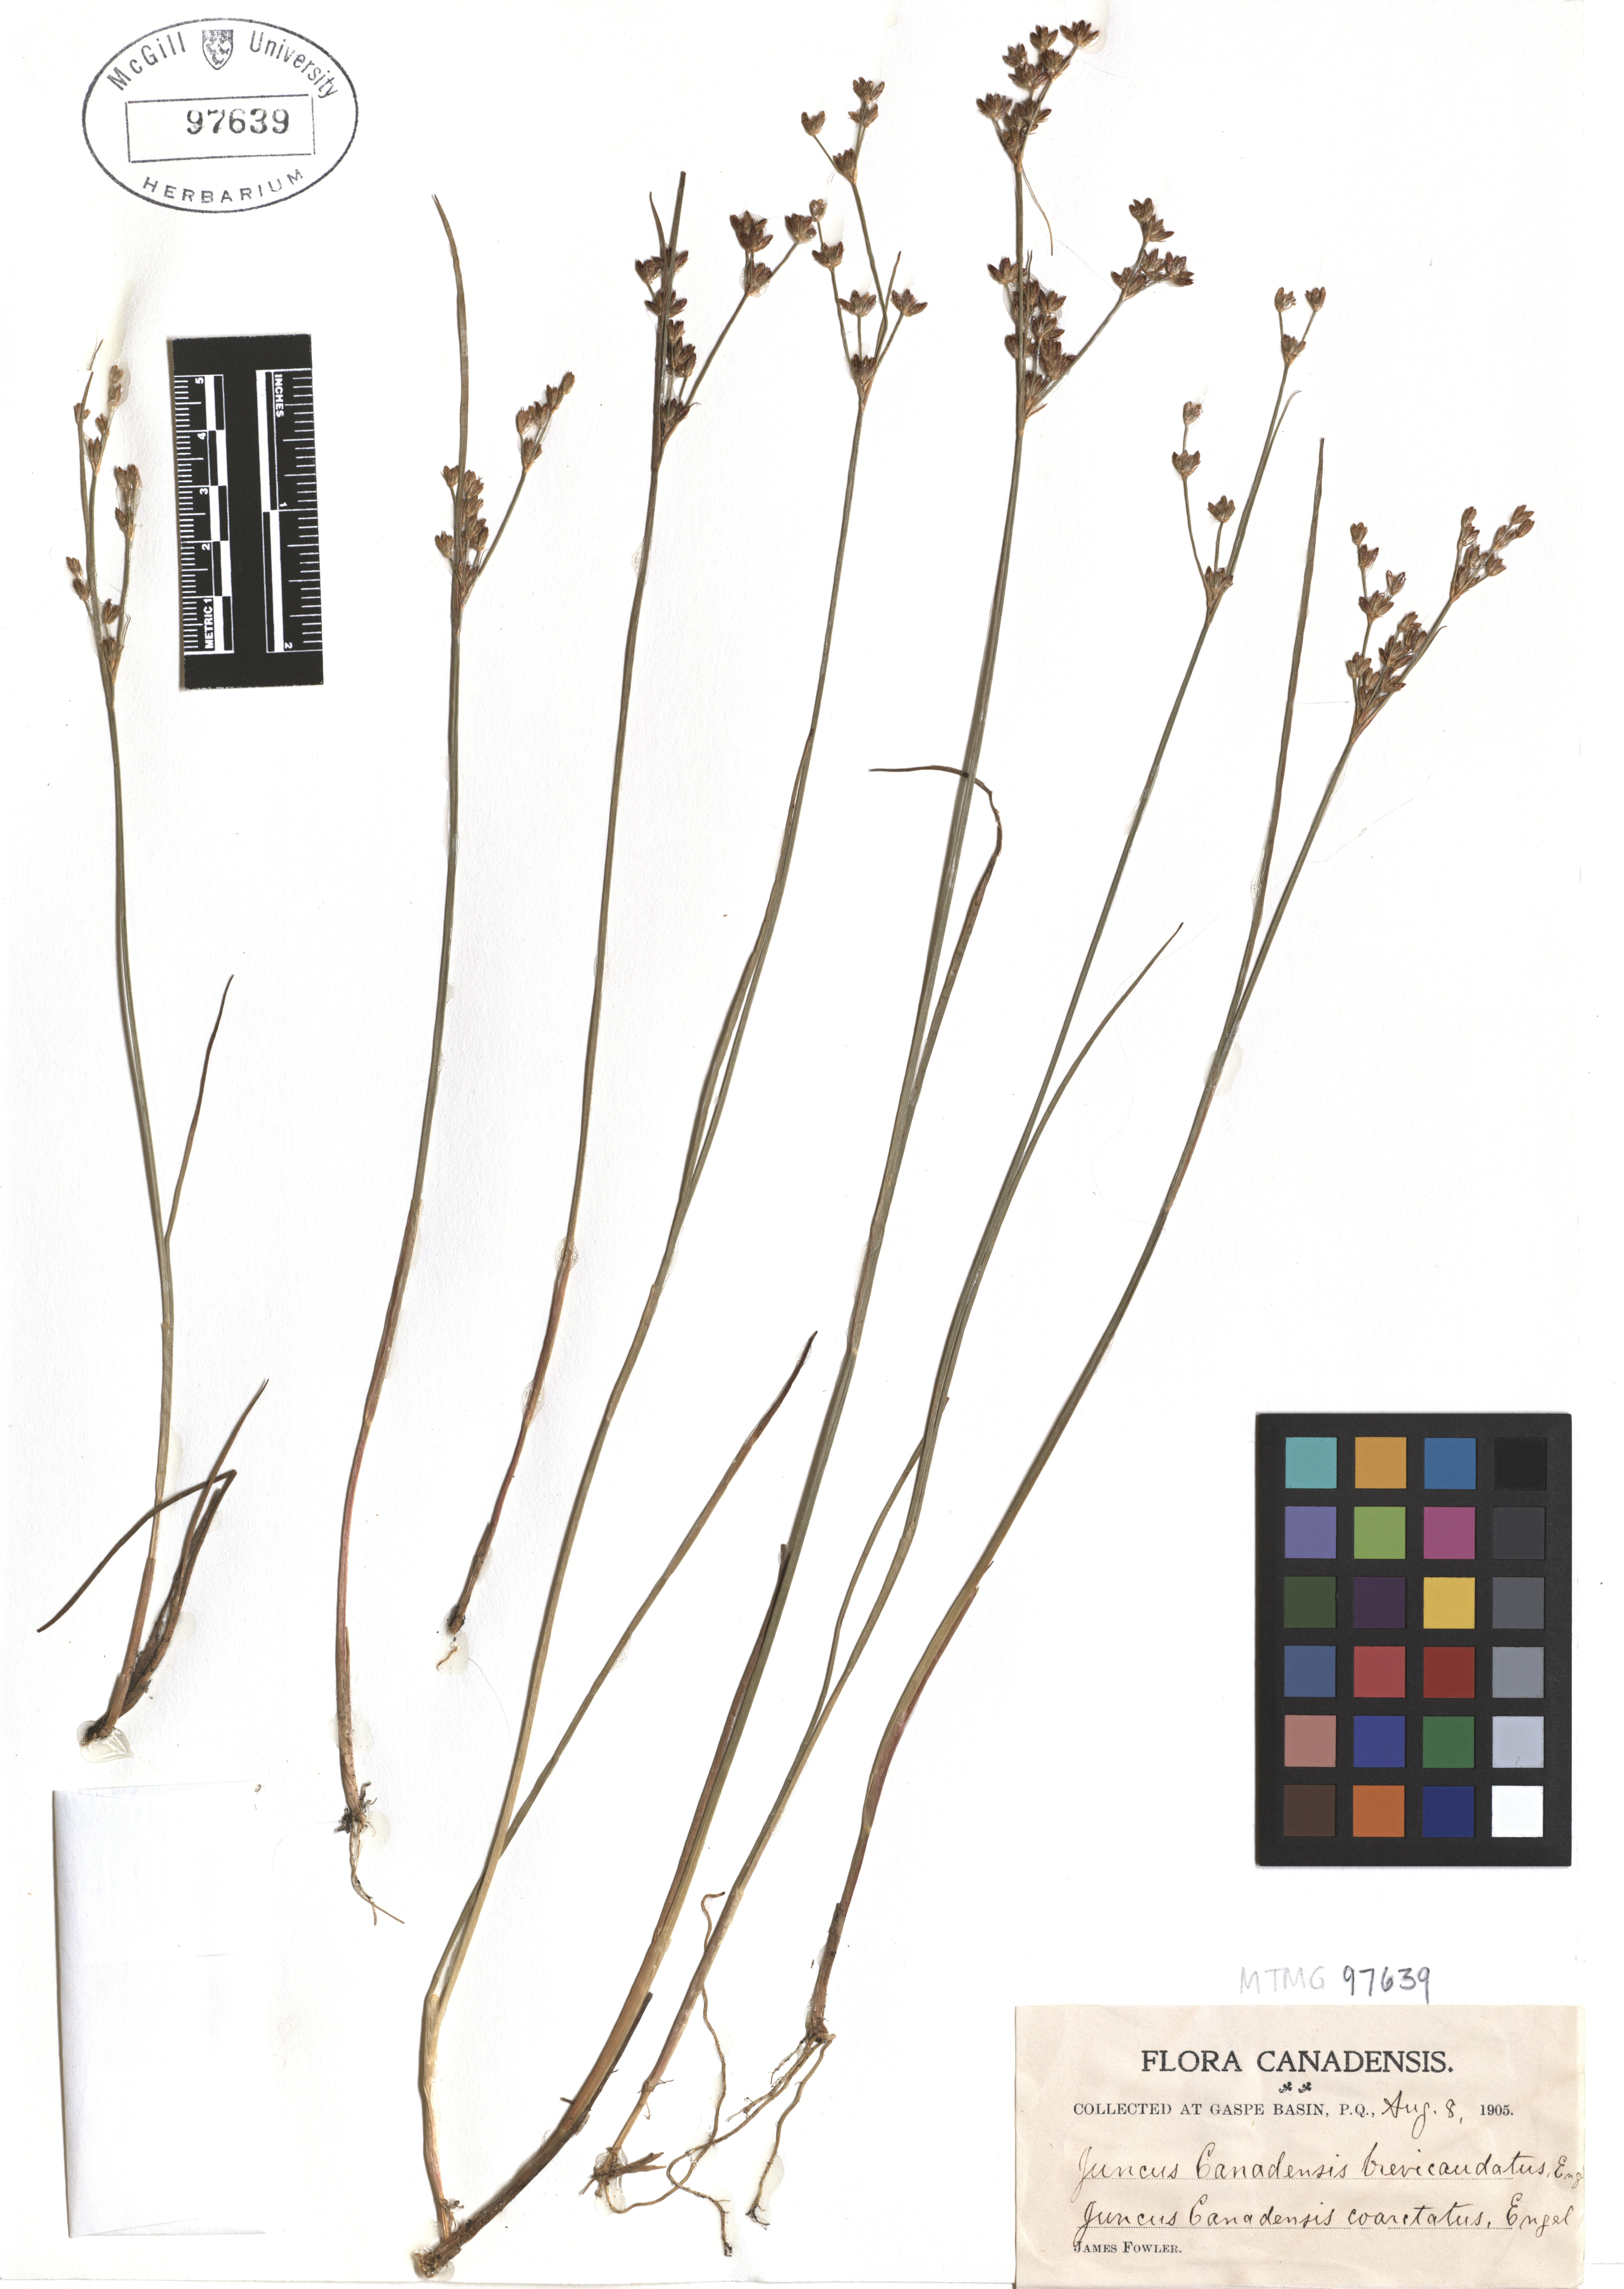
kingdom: Plantae
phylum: Tracheophyta
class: Liliopsida
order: Poales
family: Juncaceae
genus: Juncus
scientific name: Juncus brevicaudatus
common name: Narrow-panicle rush
